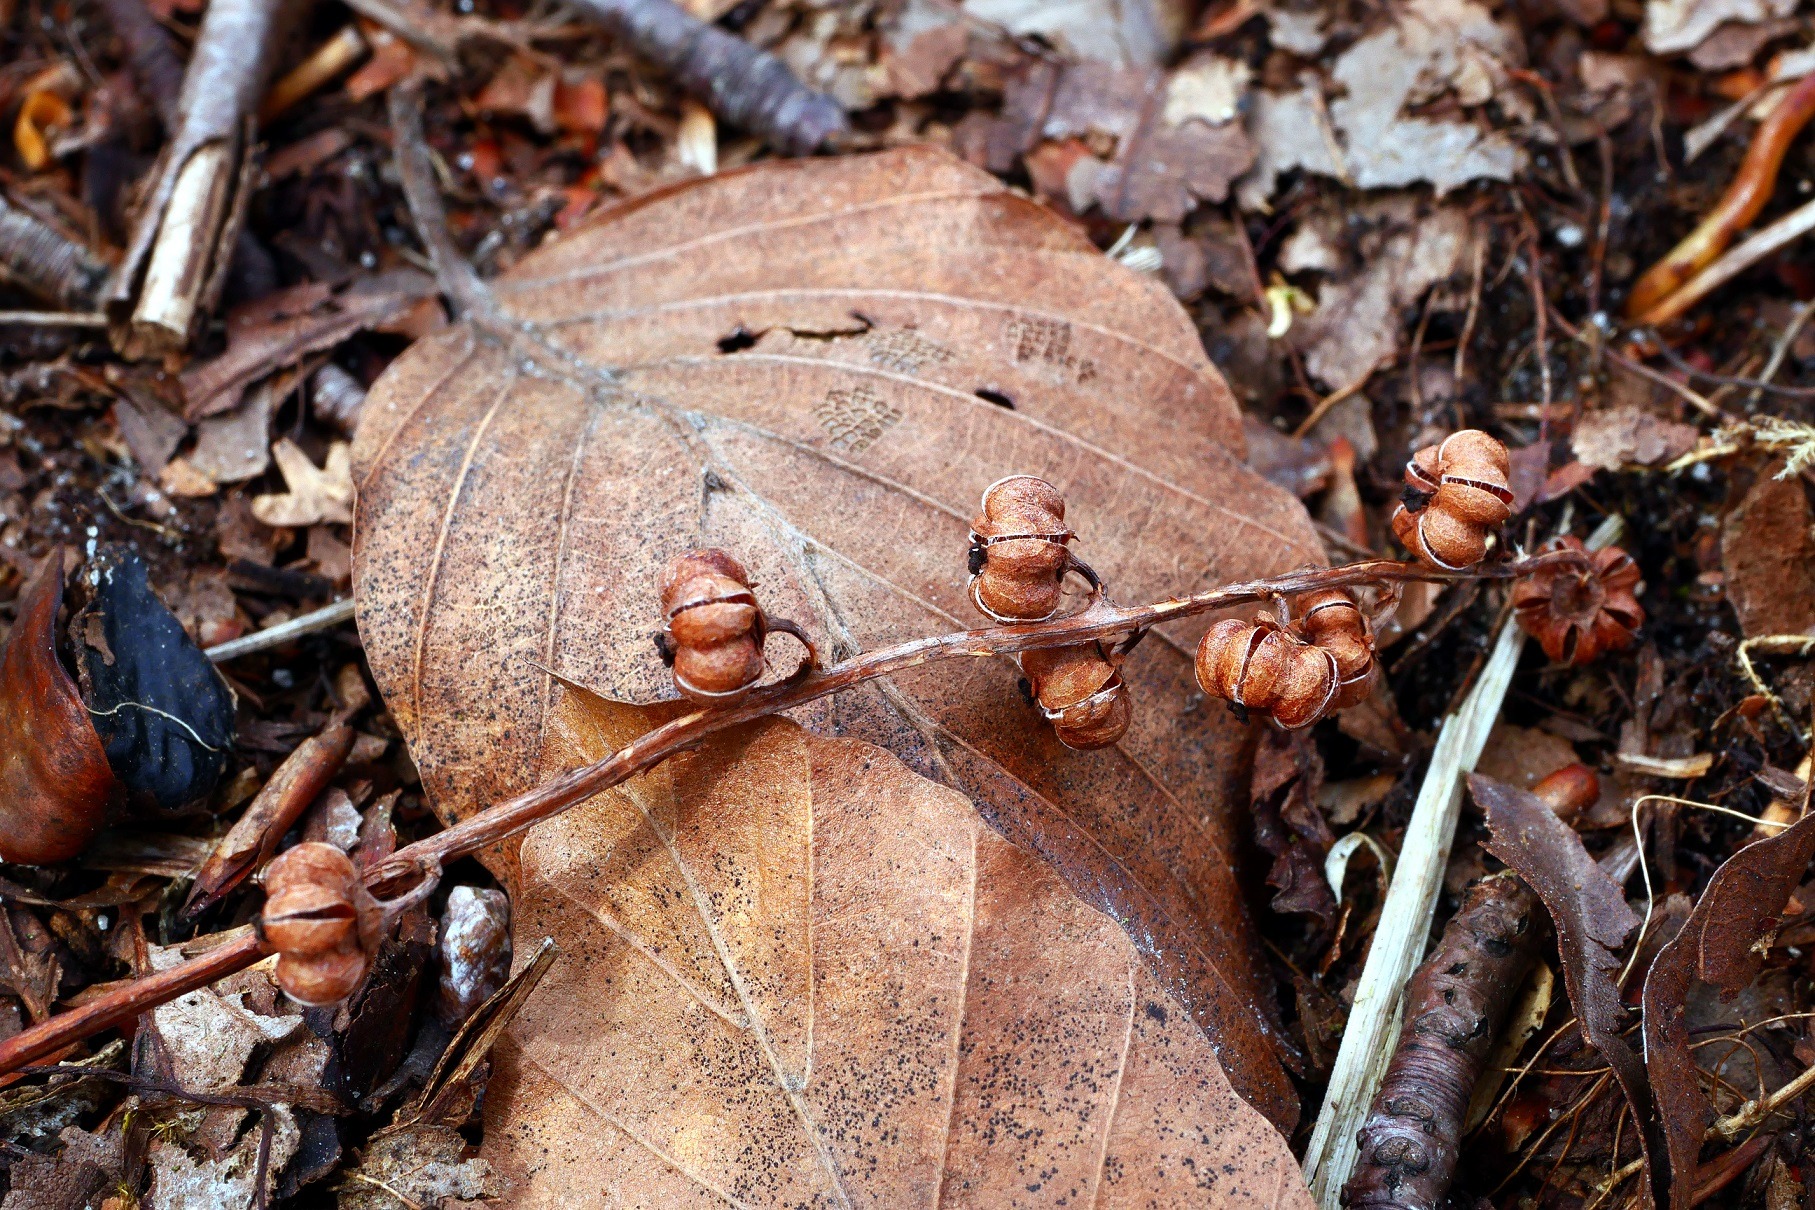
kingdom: Plantae
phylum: Tracheophyta
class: Magnoliopsida
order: Ericales
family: Ericaceae
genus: Pyrola
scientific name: Pyrola minor
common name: Liden vintergrøn
